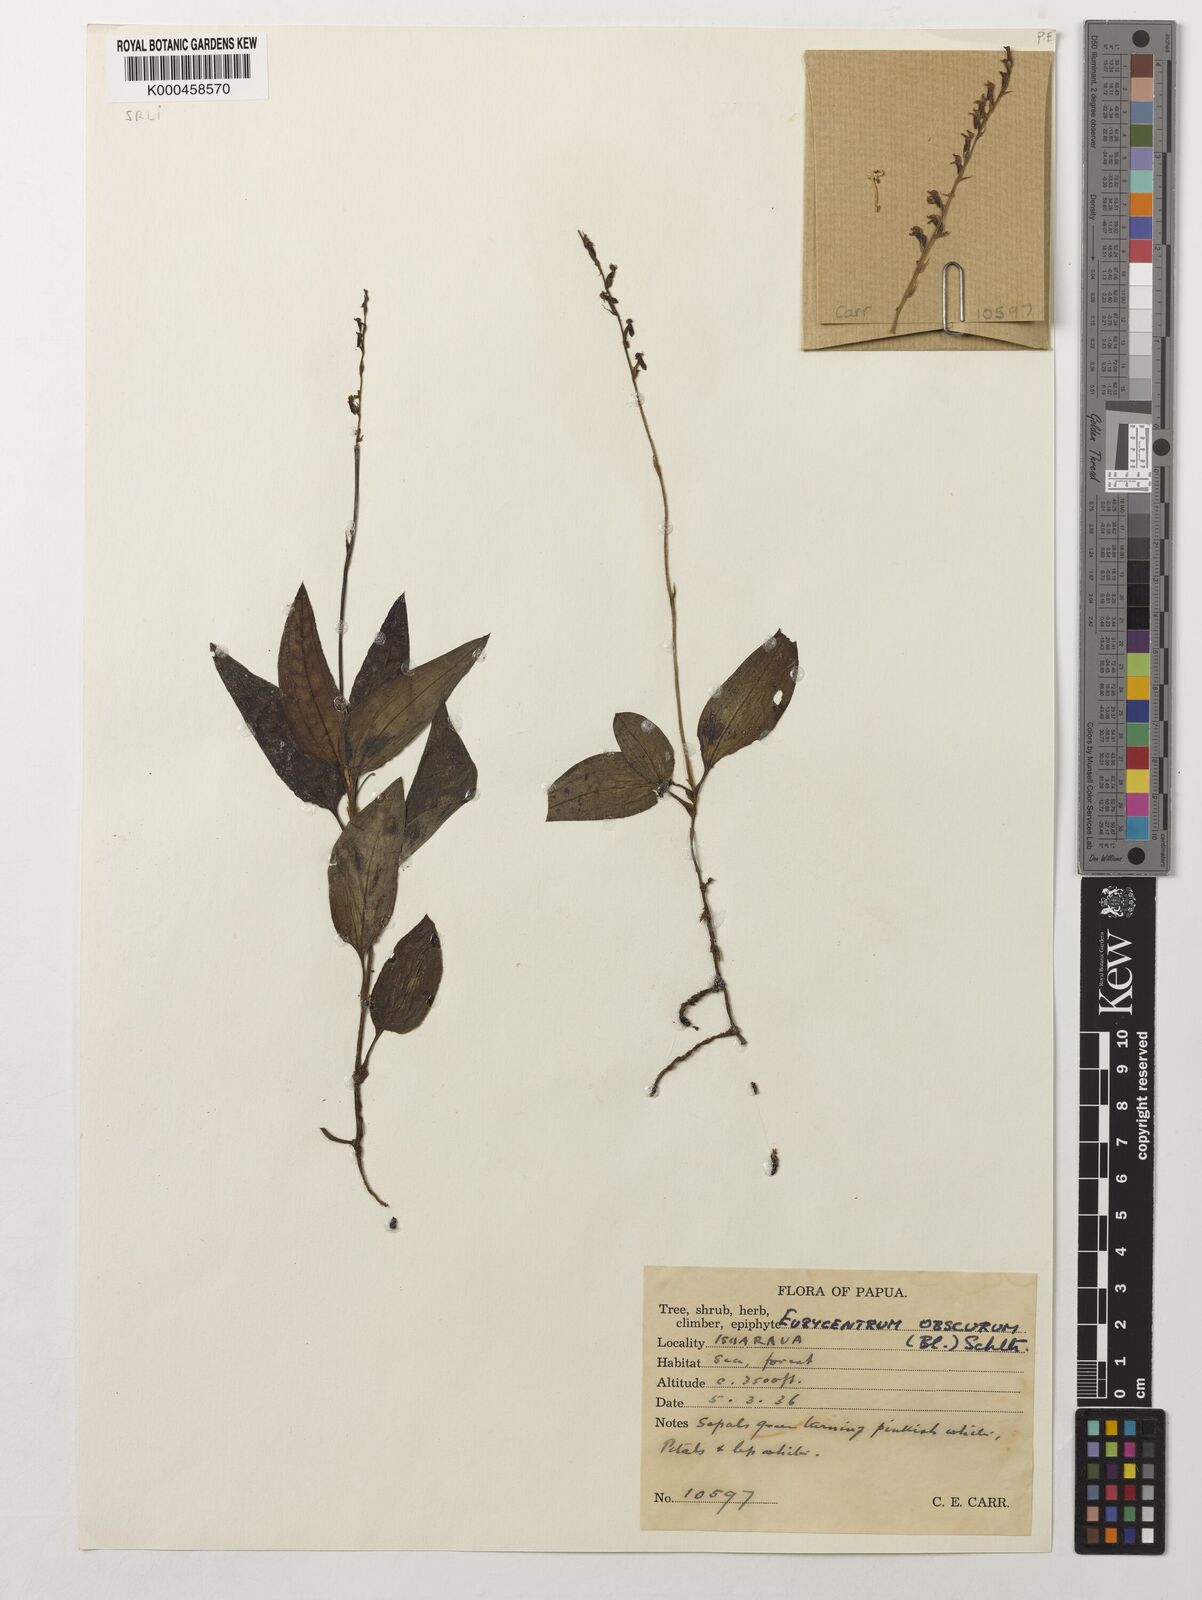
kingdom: Plantae
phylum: Tracheophyta
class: Liliopsida
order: Asparagales
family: Orchidaceae
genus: Eurycentrum
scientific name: Eurycentrum obscurum
